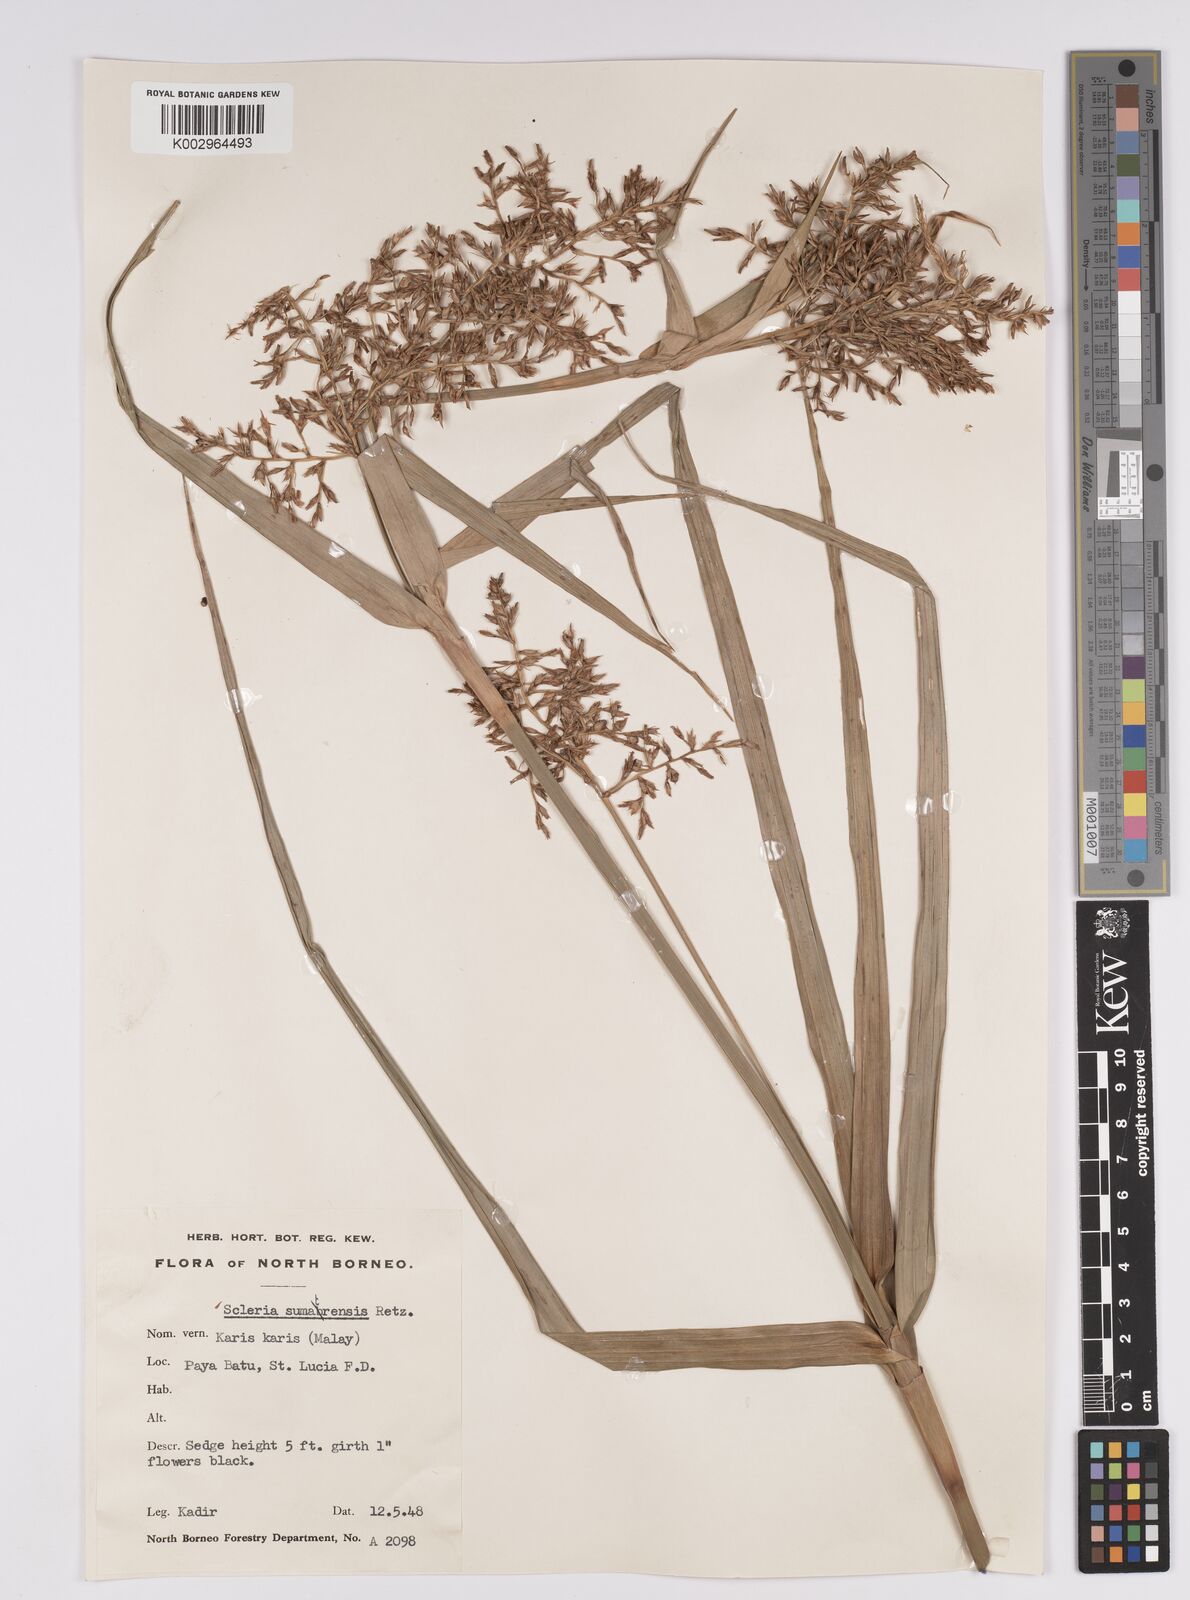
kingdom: Plantae
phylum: Tracheophyta
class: Liliopsida
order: Poales
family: Cyperaceae
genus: Scleria
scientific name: Scleria sumatrensis
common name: Sumatran scleria
